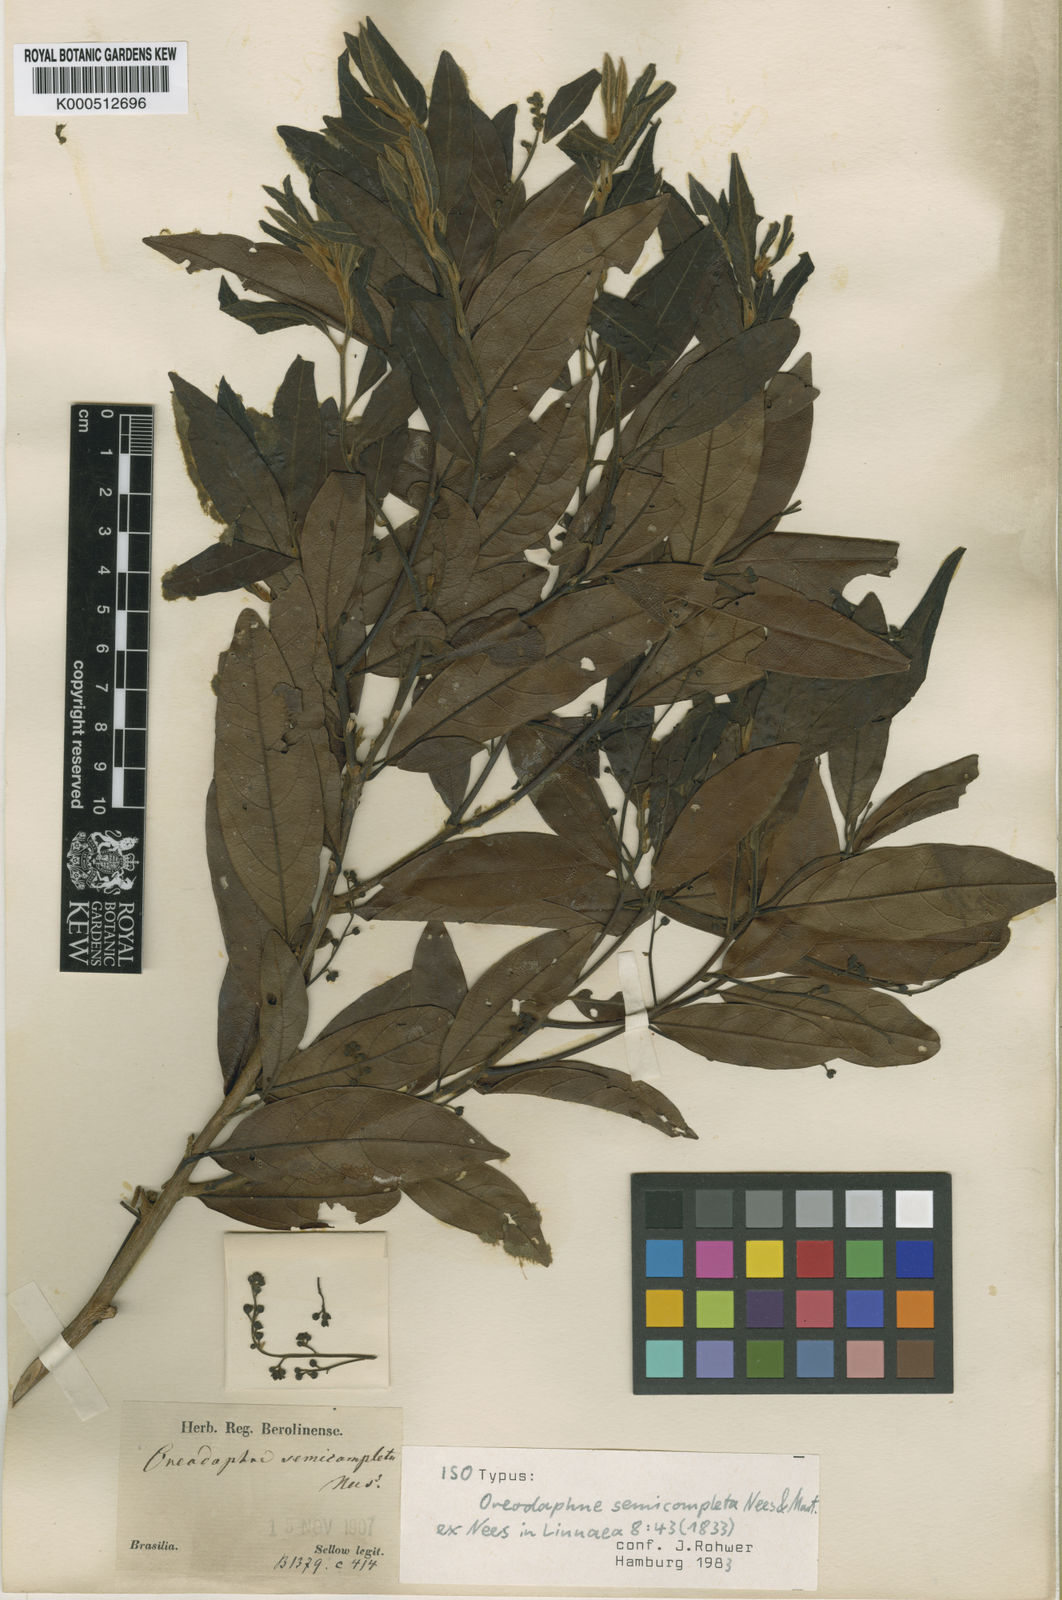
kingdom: Plantae
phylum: Tracheophyta
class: Magnoliopsida
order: Laurales
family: Lauraceae
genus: Ocotea
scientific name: Ocotea semicompleta
